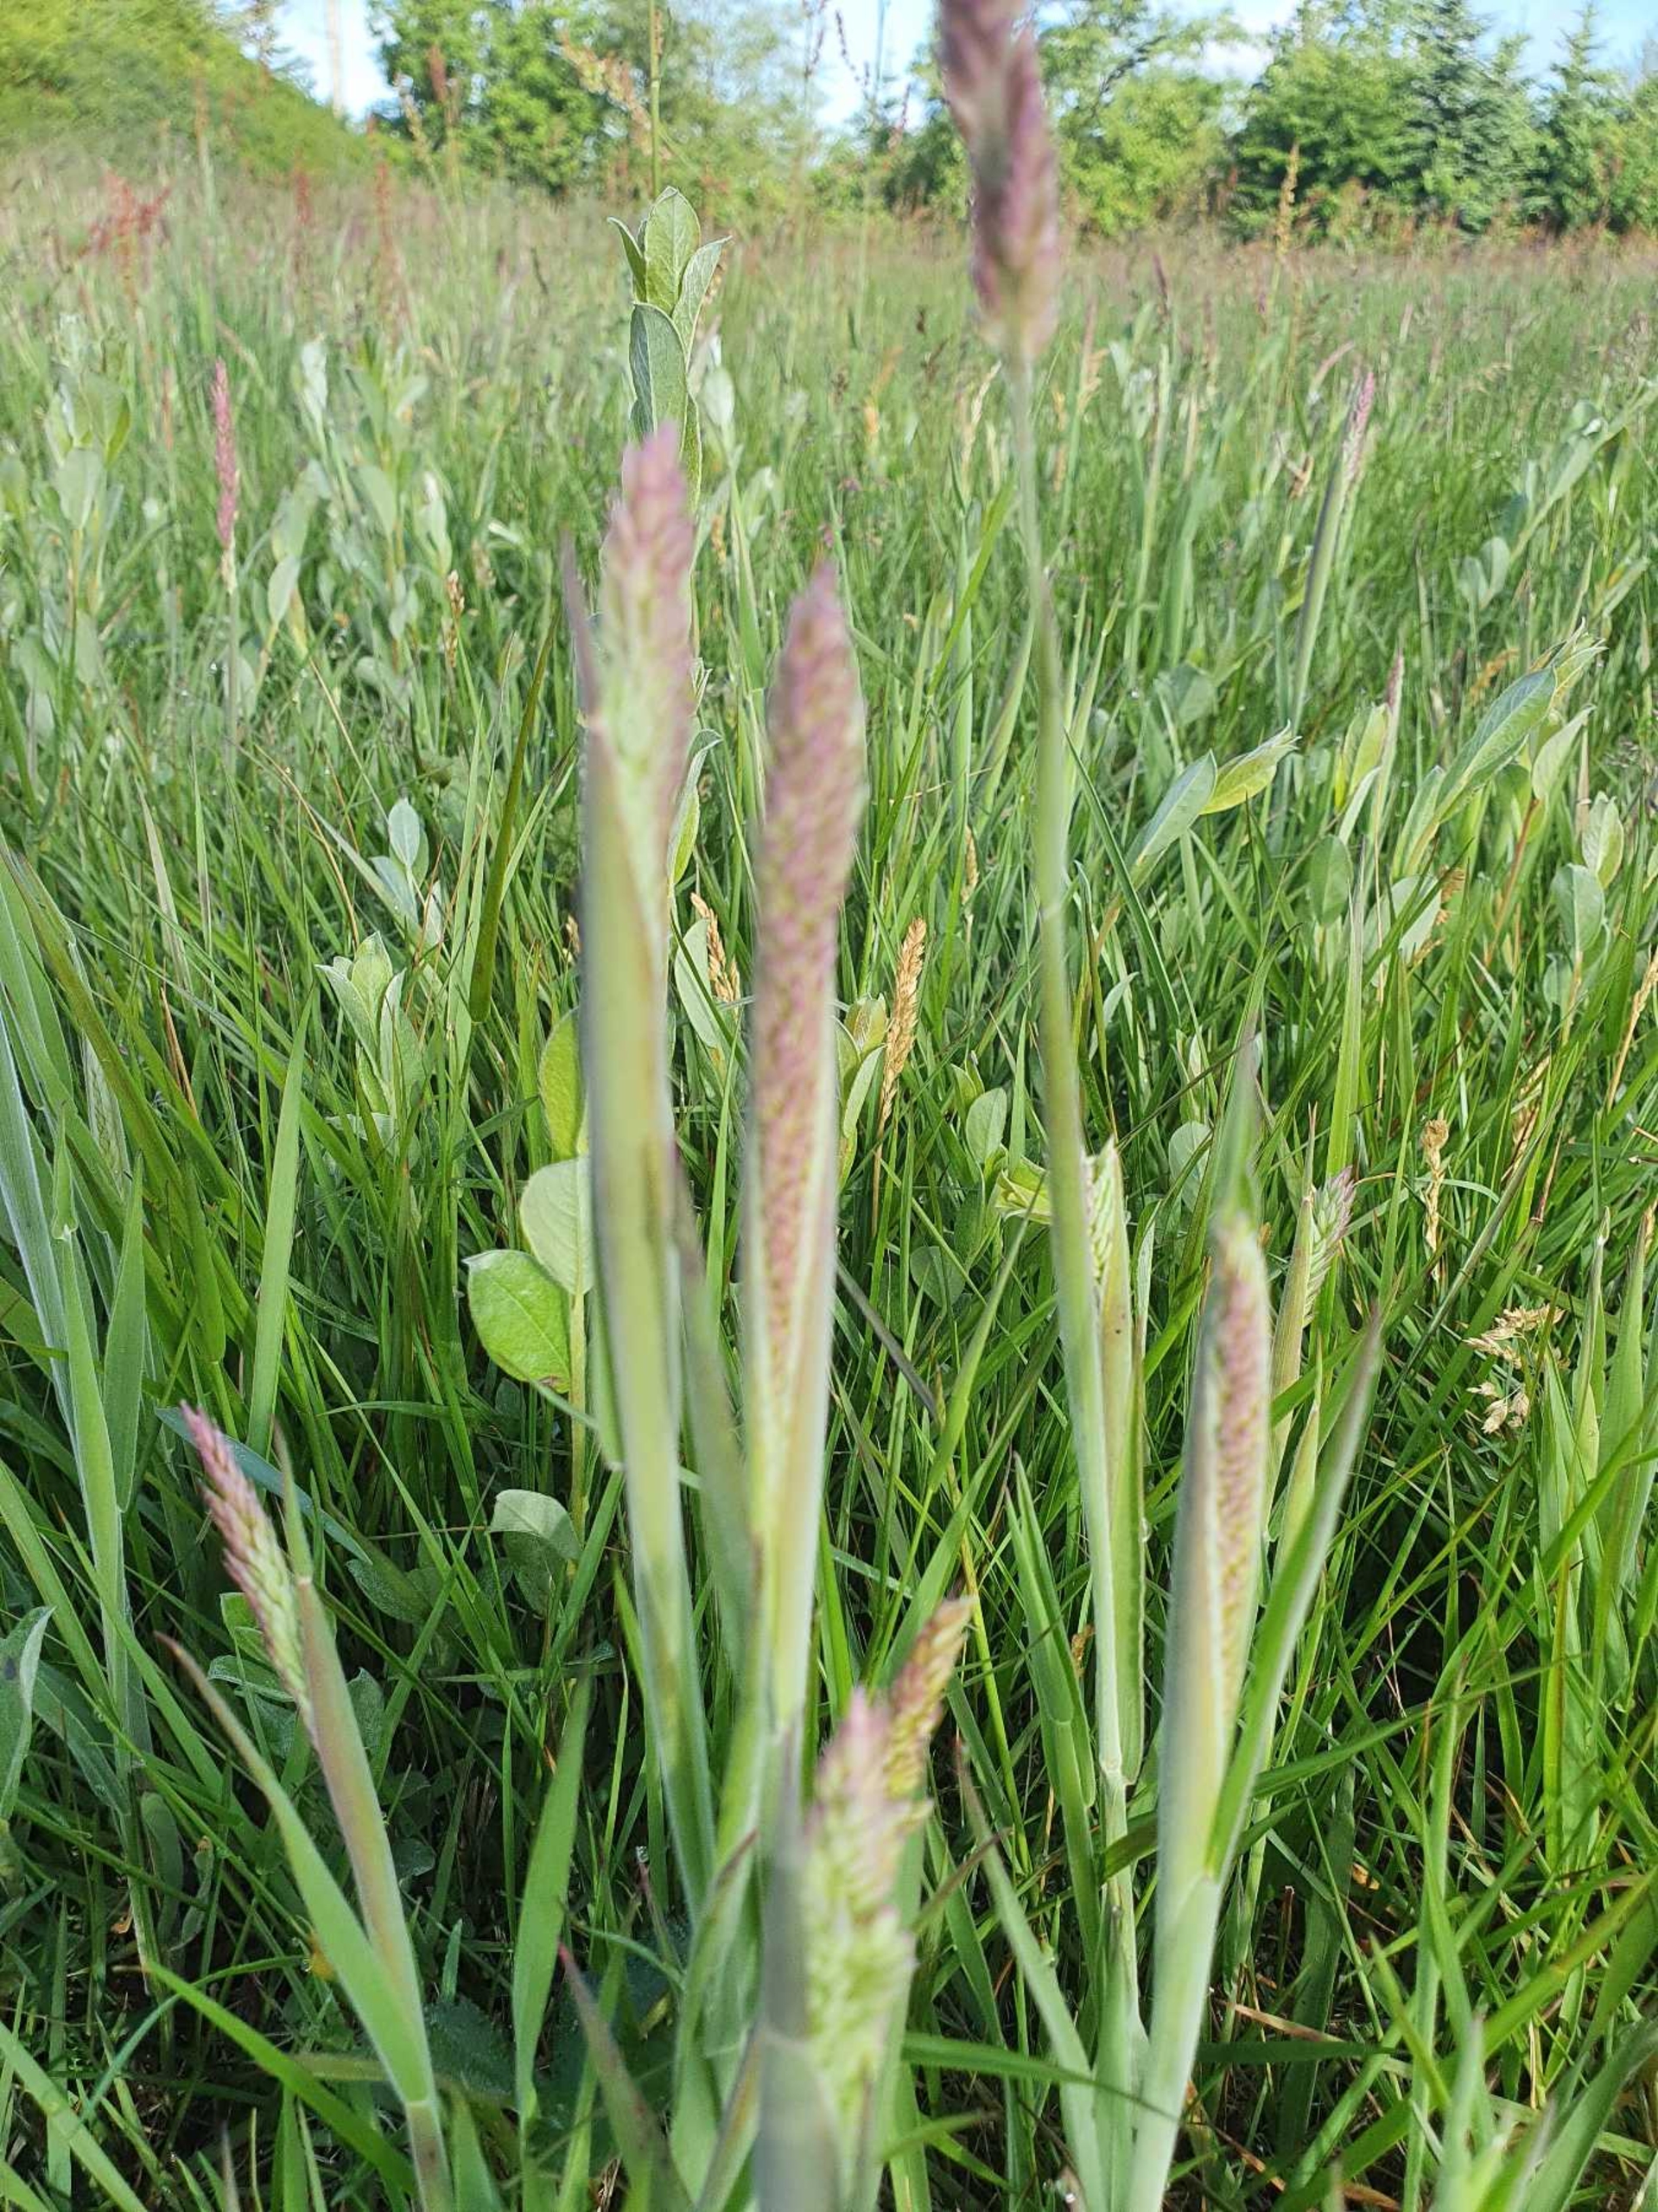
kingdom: Plantae
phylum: Tracheophyta
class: Liliopsida
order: Poales
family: Poaceae
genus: Holcus
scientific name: Holcus lanatus
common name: Fløjlsgræs
